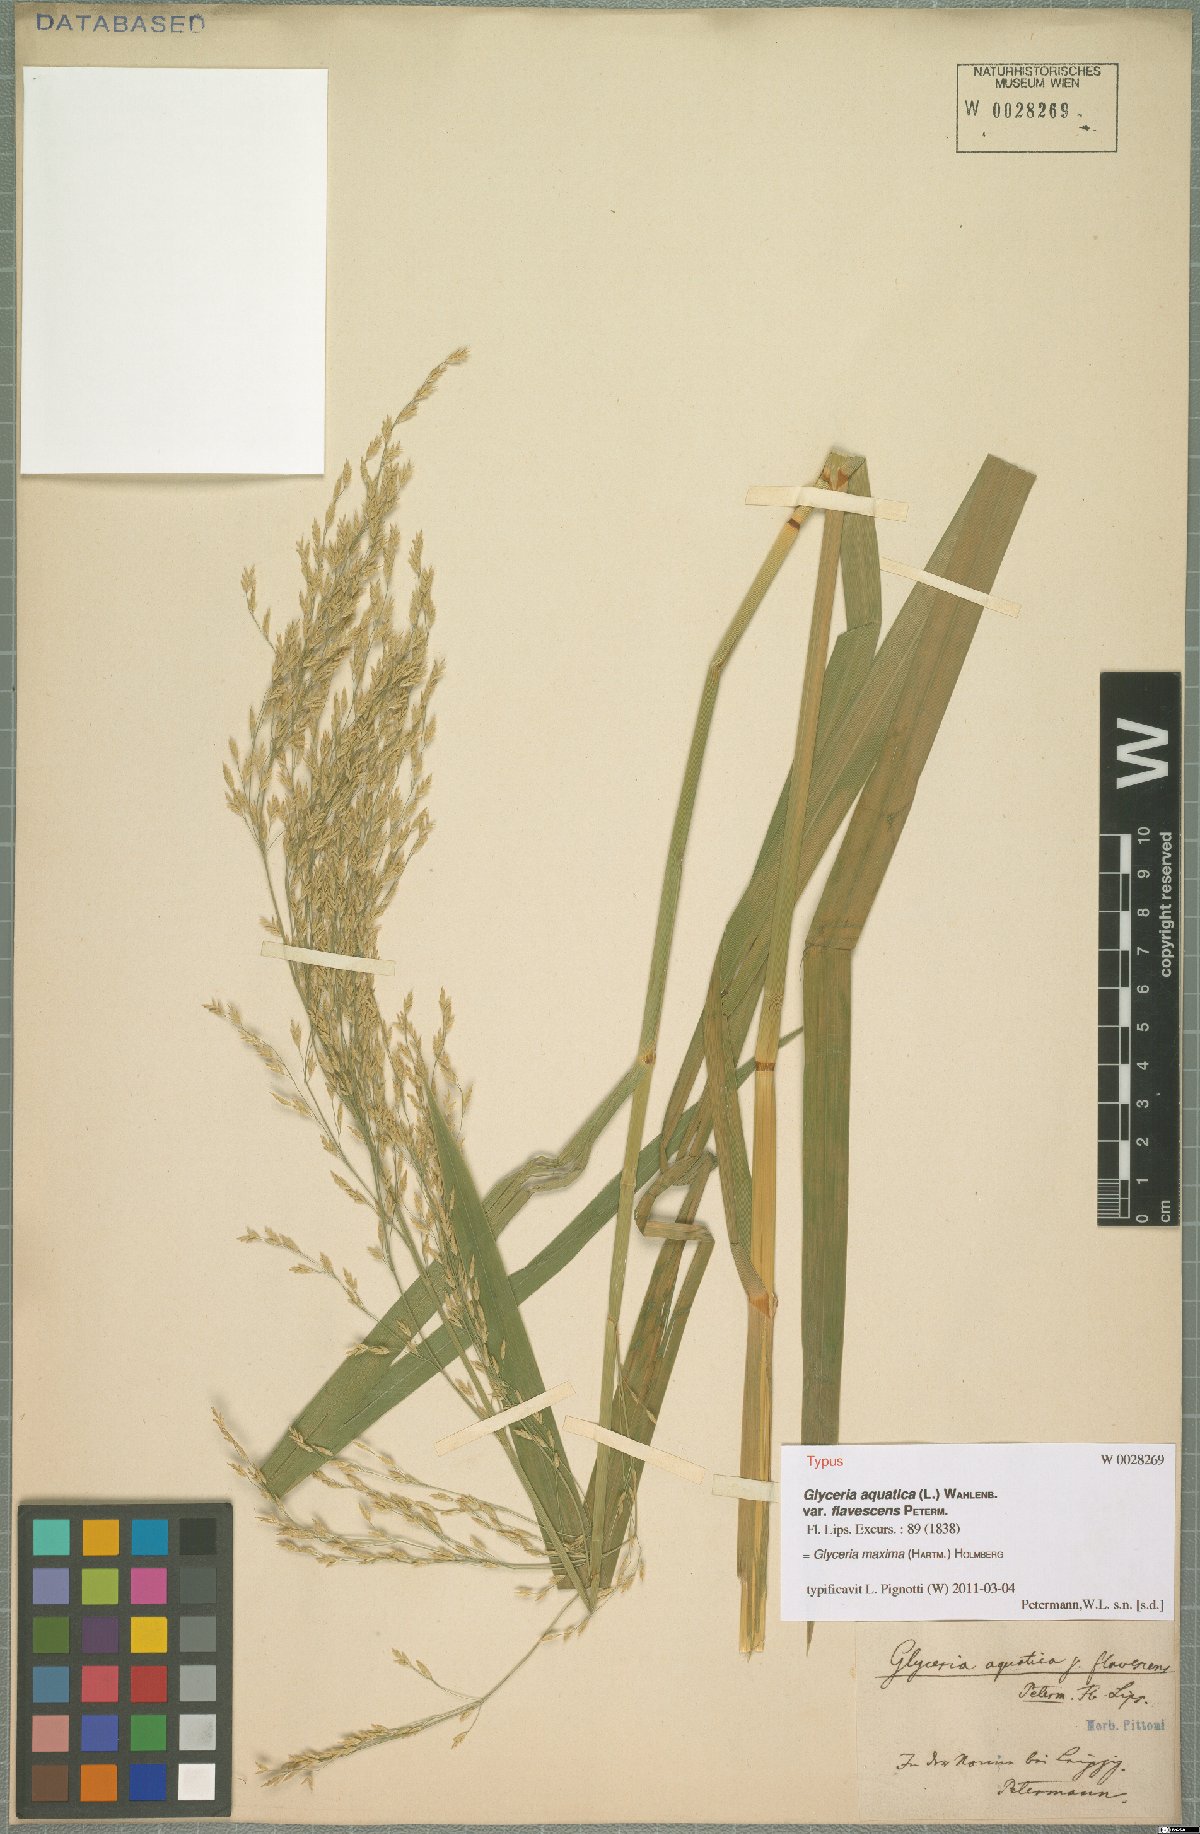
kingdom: Plantae
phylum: Tracheophyta
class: Liliopsida
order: Poales
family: Poaceae
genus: Glyceria
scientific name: Glyceria maxima
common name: Reed mannagrass
